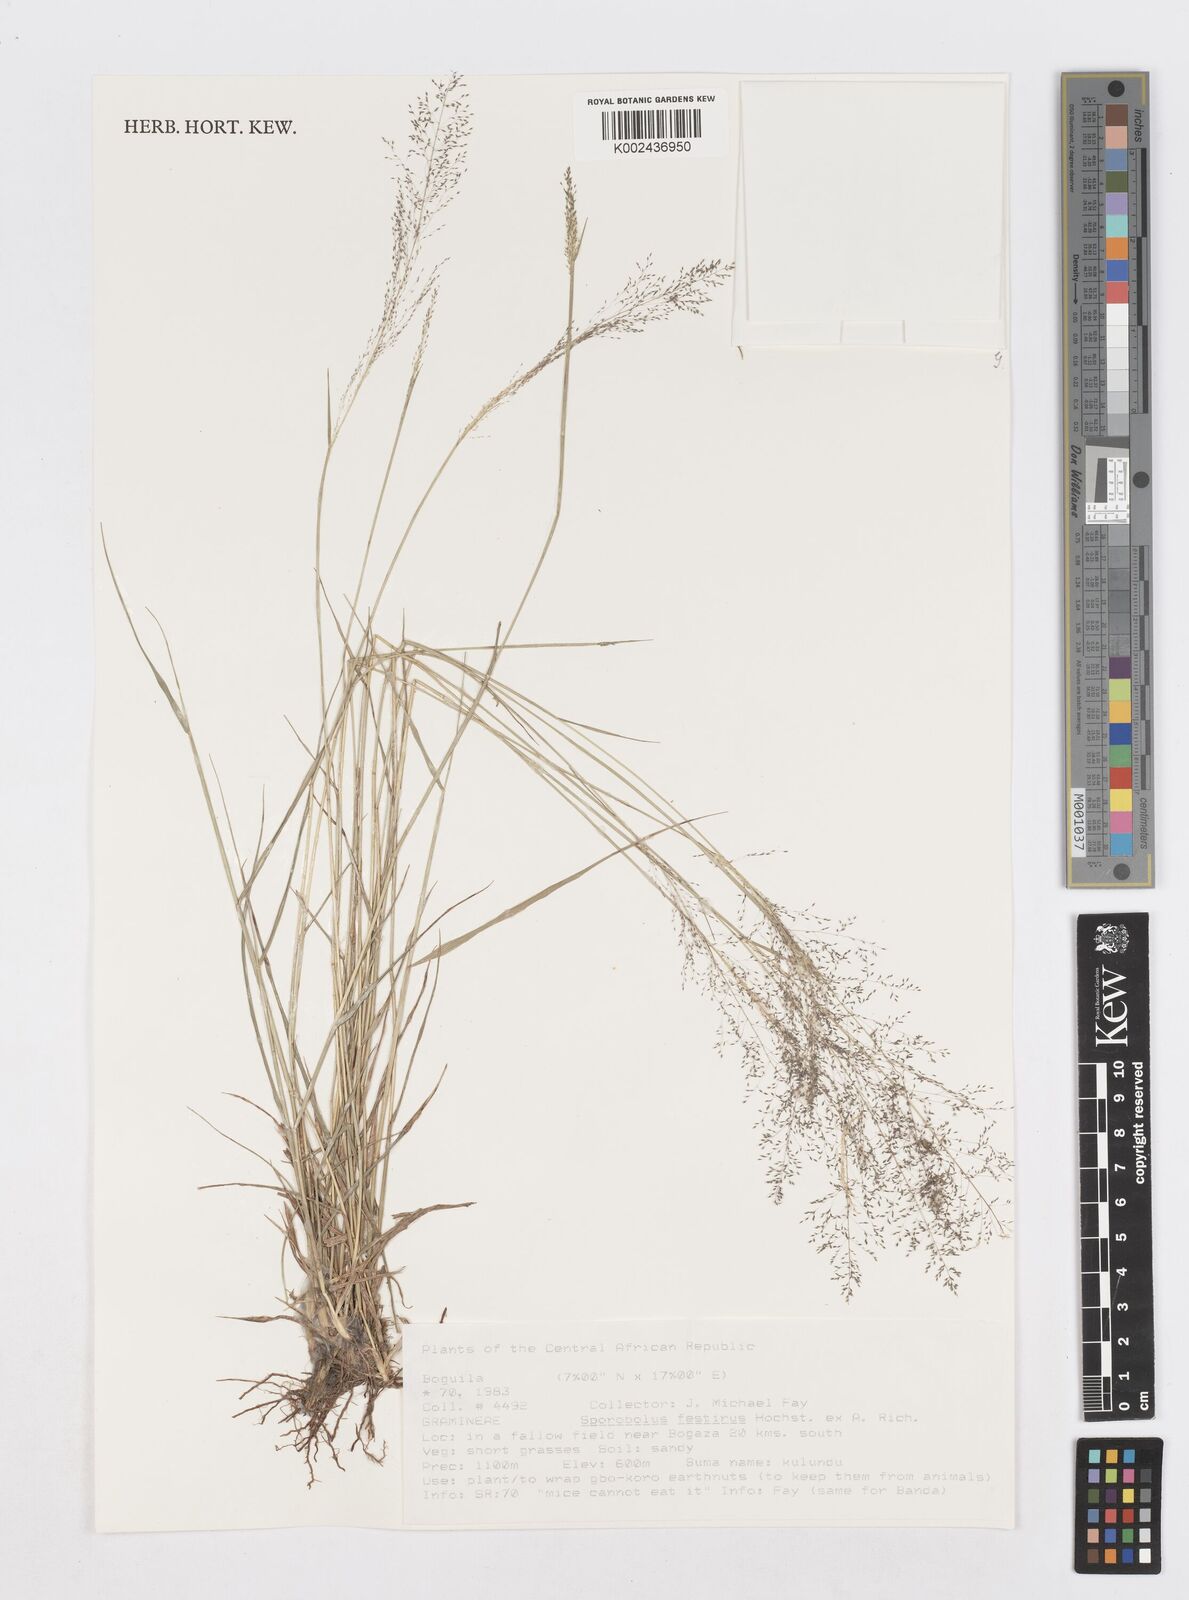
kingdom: Plantae
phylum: Tracheophyta
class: Liliopsida
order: Poales
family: Poaceae
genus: Sporobolus
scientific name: Sporobolus festivus
